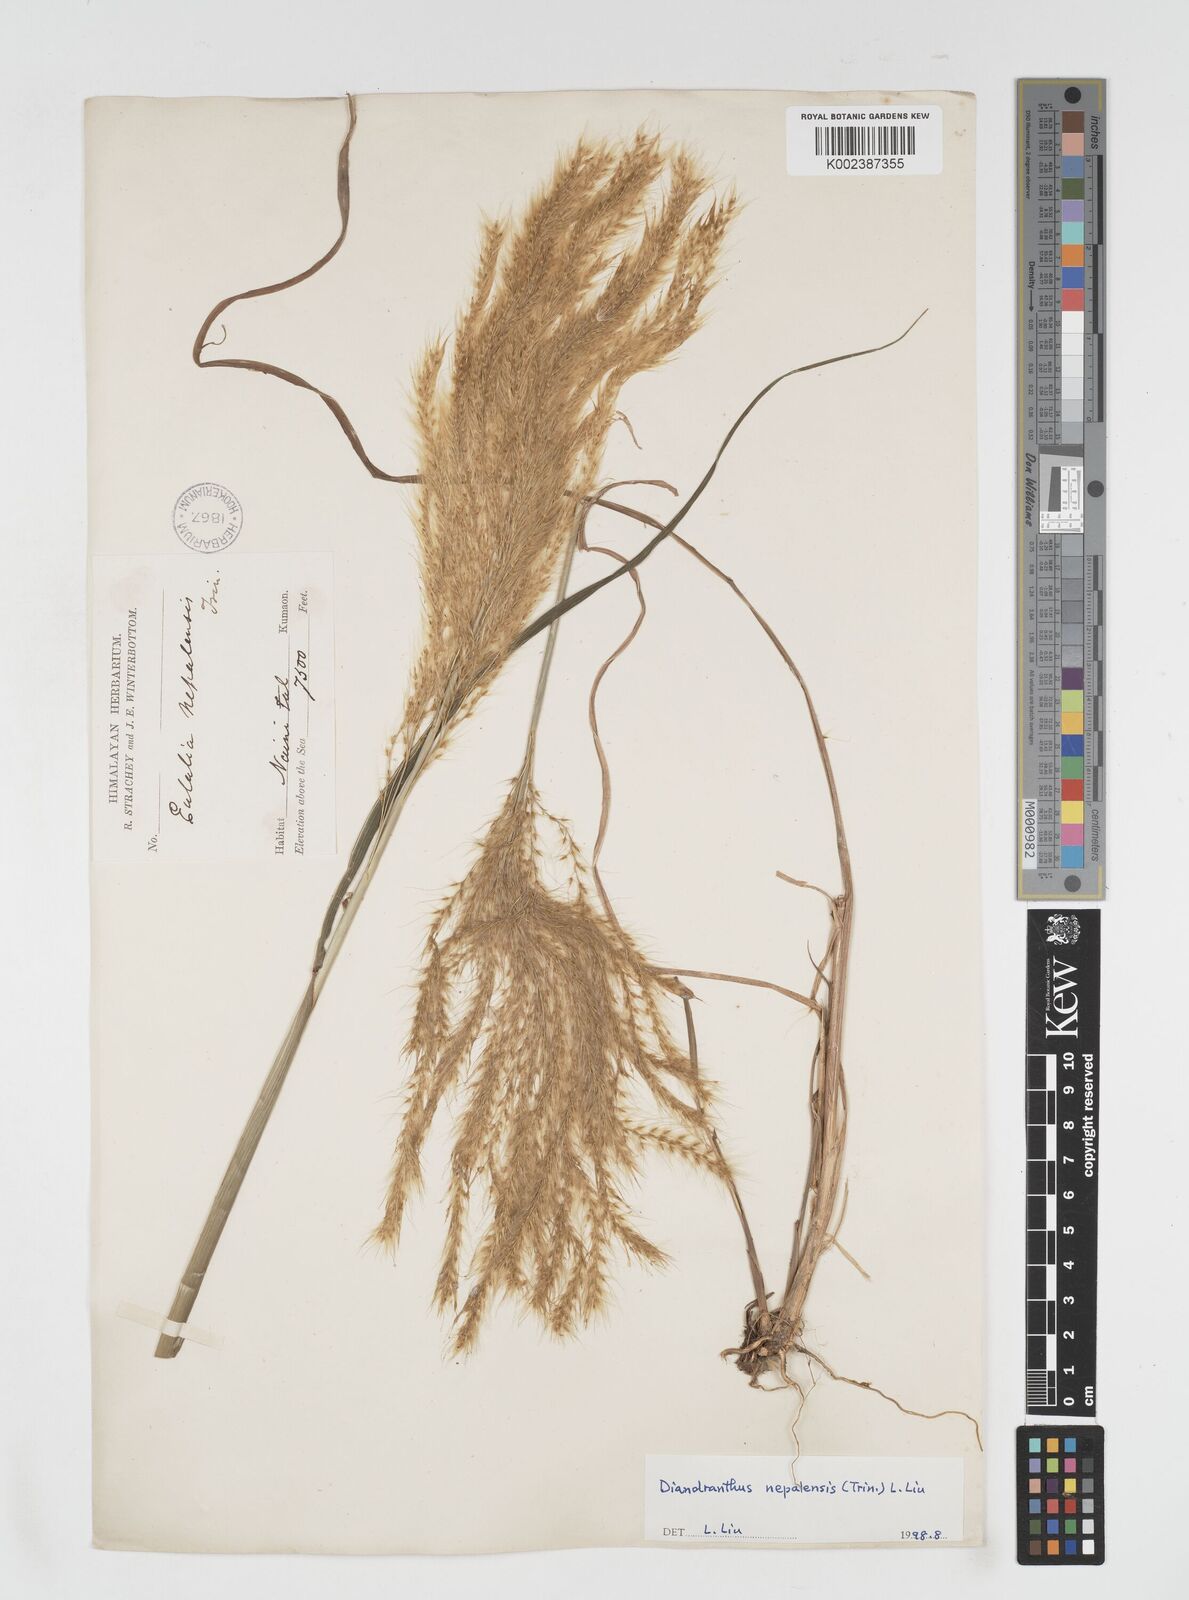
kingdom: Plantae
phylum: Tracheophyta
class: Liliopsida
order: Poales
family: Poaceae
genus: Miscanthus
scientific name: Miscanthus nepalensis
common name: Nepal silver grass
